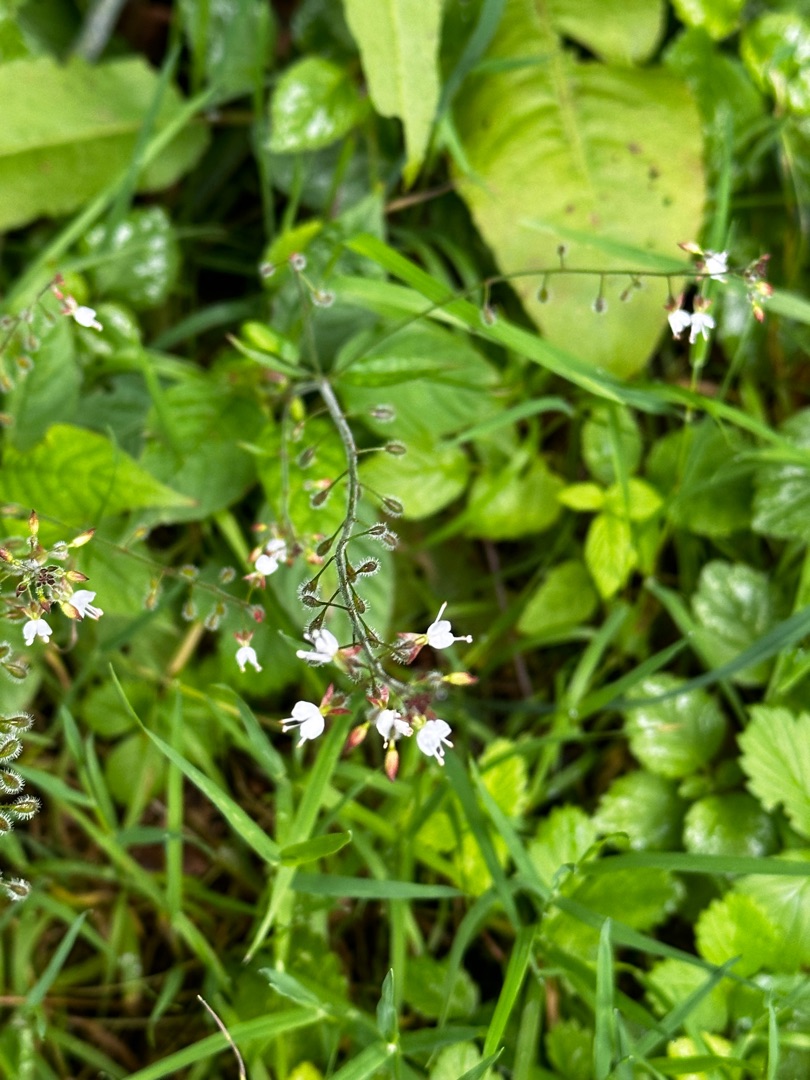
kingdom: Plantae
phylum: Tracheophyta
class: Magnoliopsida
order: Myrtales
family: Onagraceae
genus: Circaea
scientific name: Circaea lutetiana
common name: Dunet steffensurt
